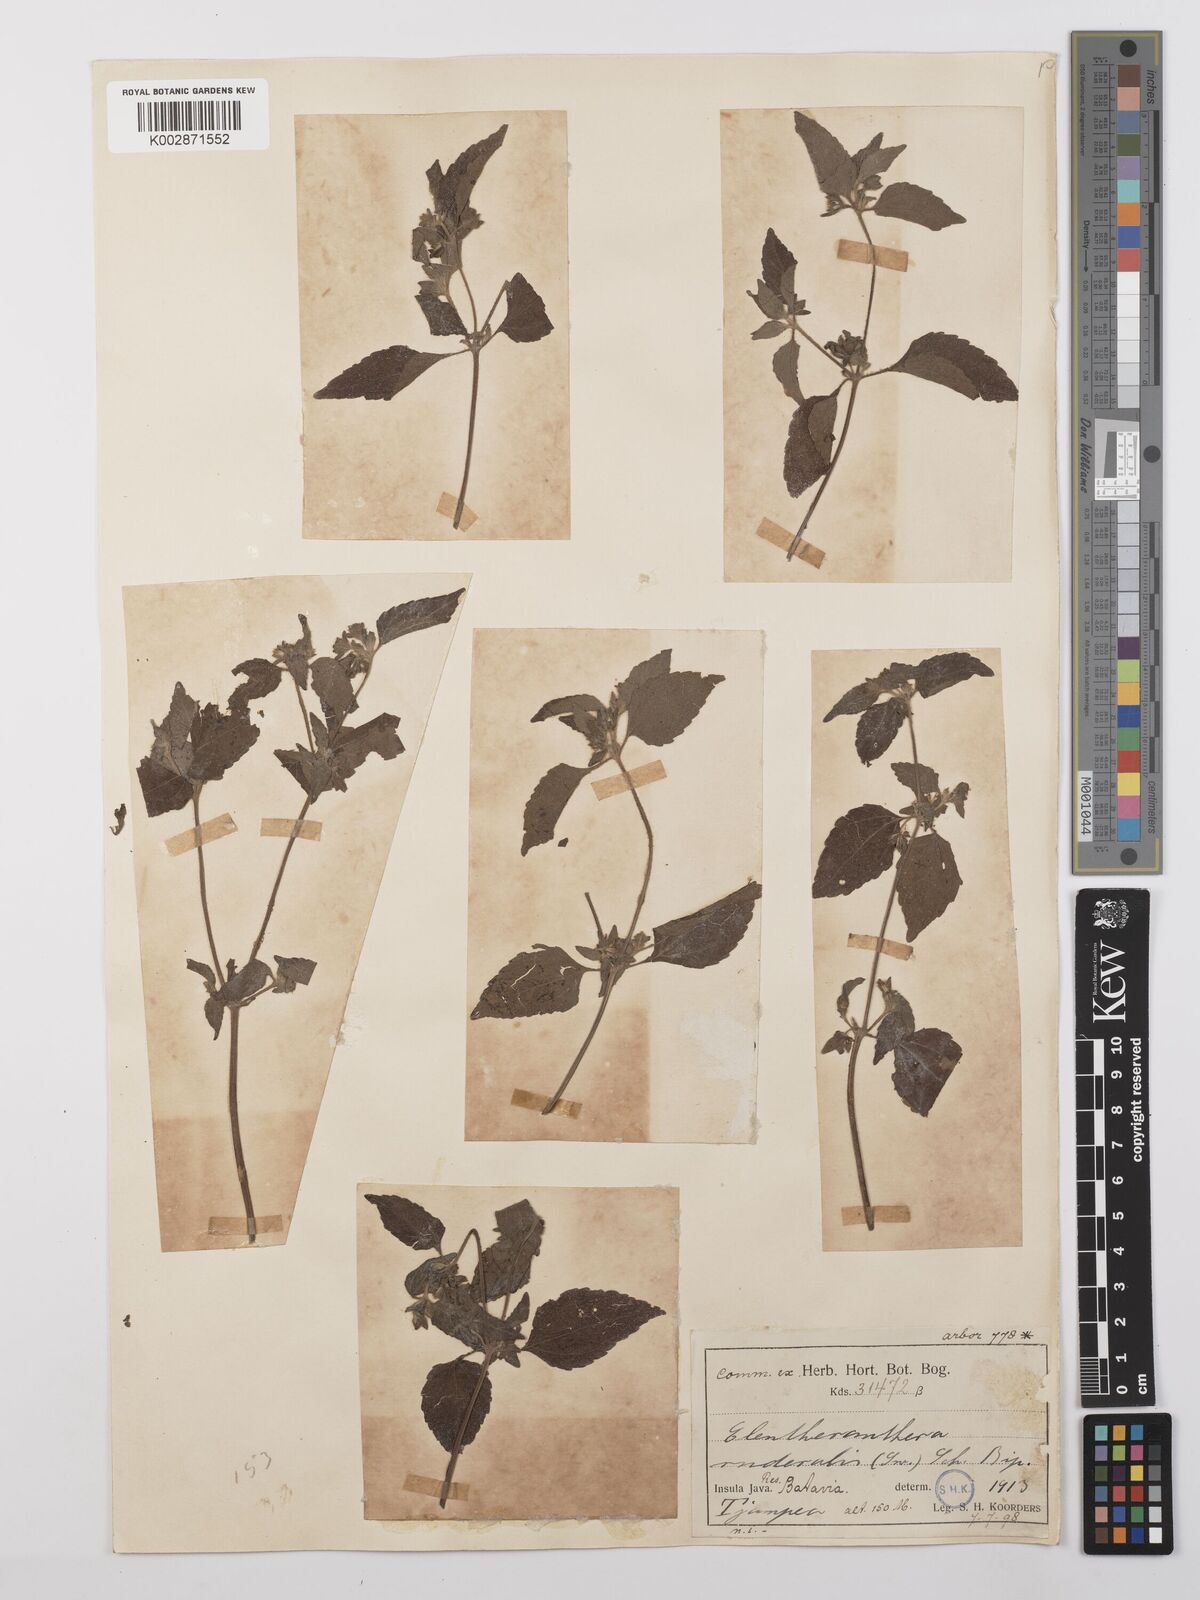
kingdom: Plantae
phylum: Tracheophyta
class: Magnoliopsida
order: Asterales
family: Asteraceae
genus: Eleutheranthera
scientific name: Eleutheranthera ruderalis
